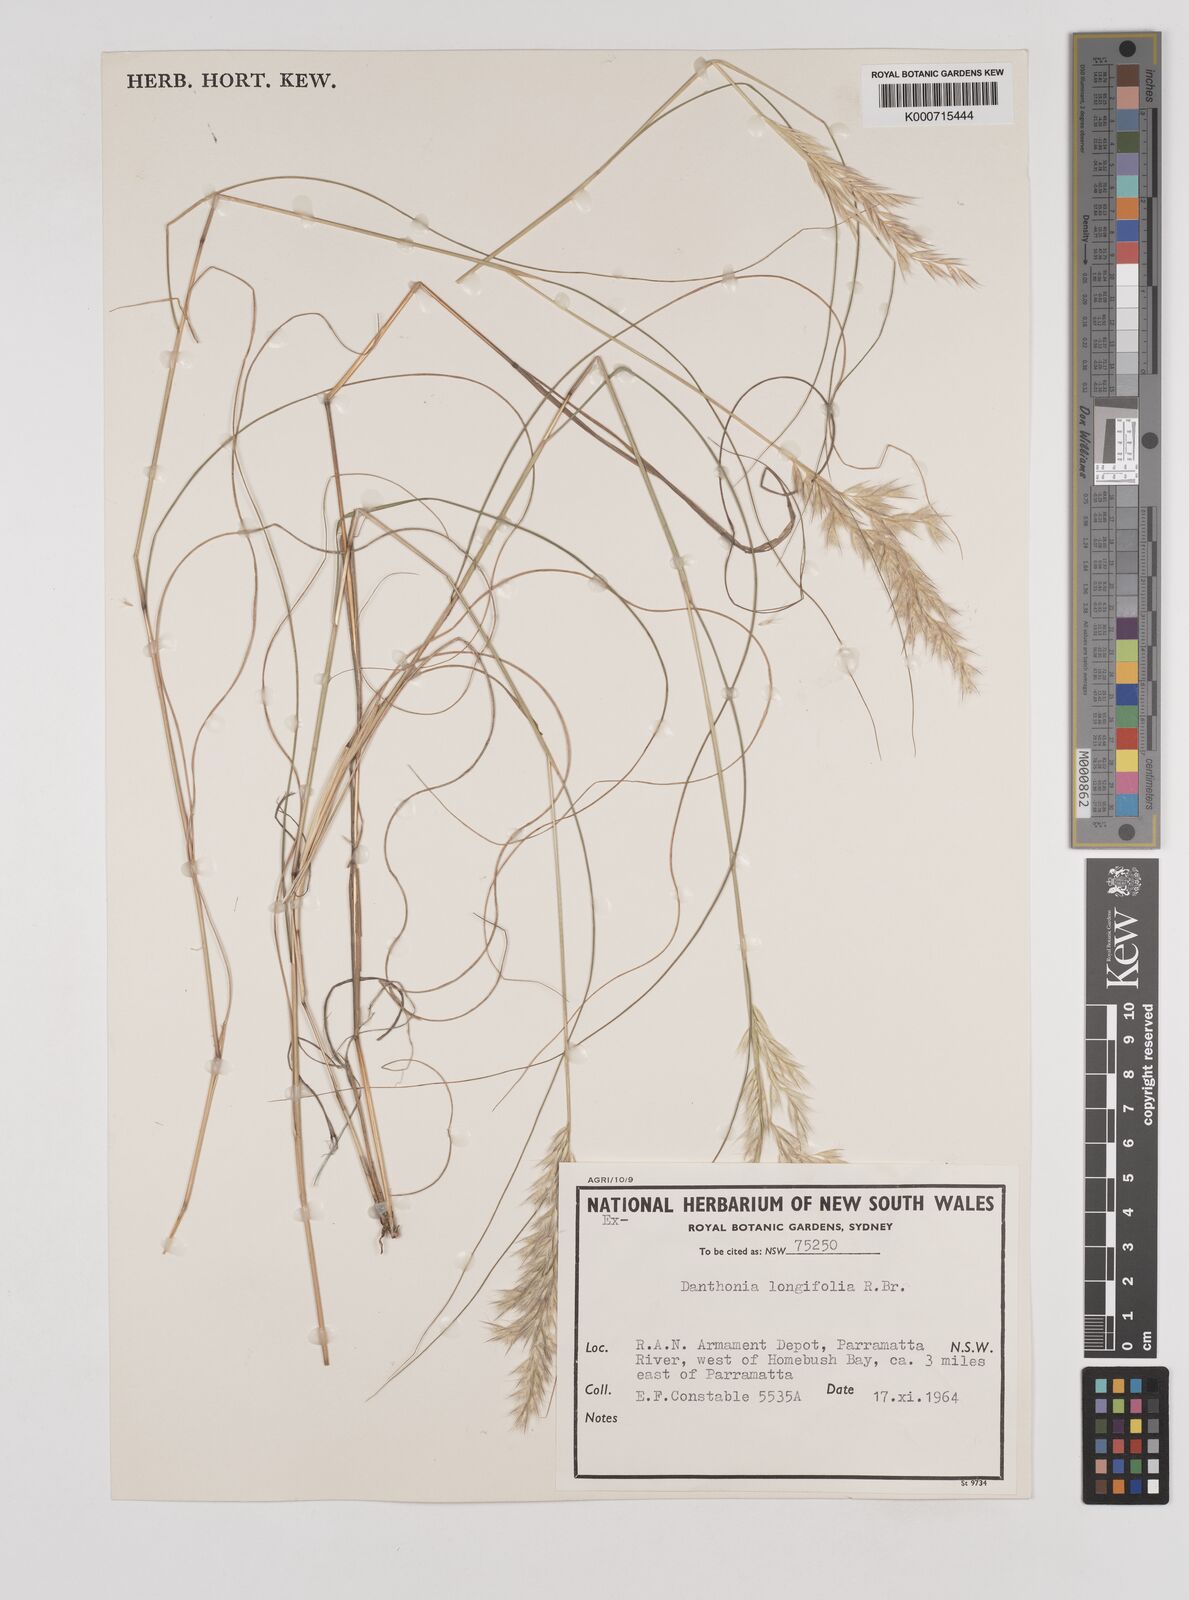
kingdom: Plantae
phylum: Tracheophyta
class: Liliopsida
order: Poales
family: Poaceae
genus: Rytidosperma
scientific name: Rytidosperma longifolium
